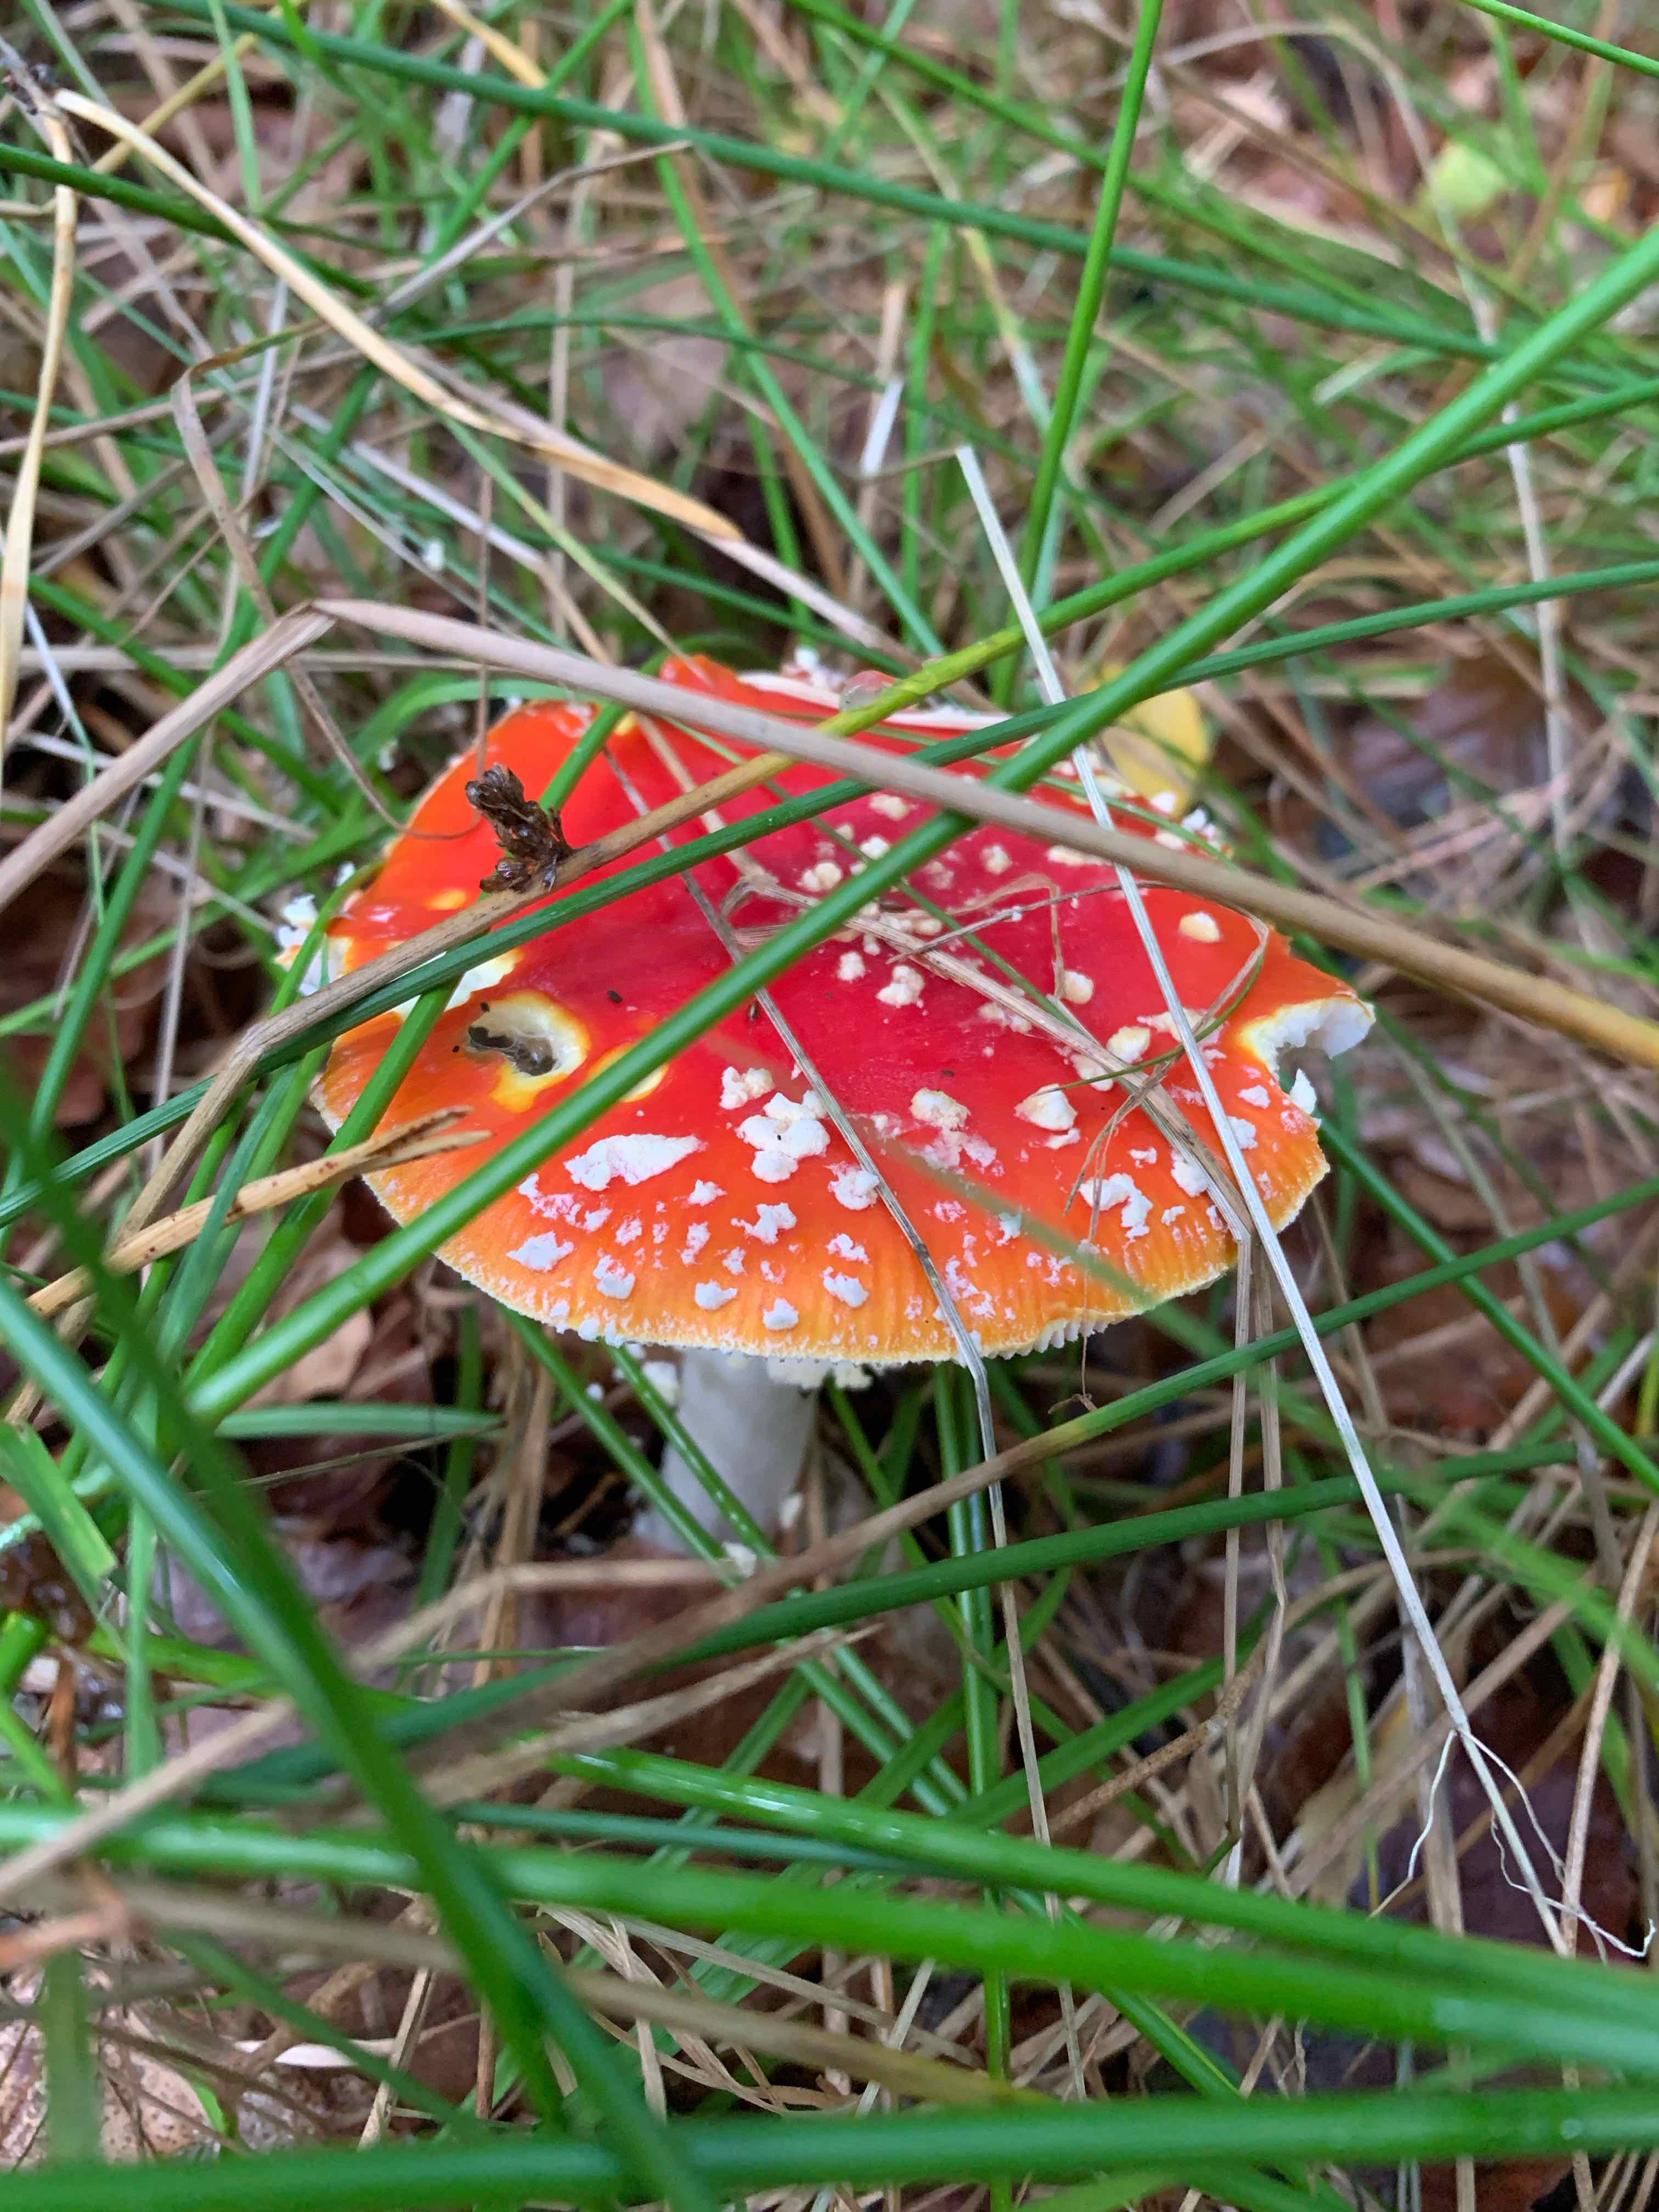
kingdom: Fungi
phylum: Basidiomycota
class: Agaricomycetes
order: Agaricales
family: Amanitaceae
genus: Amanita
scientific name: Amanita muscaria
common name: rød fluesvamp
